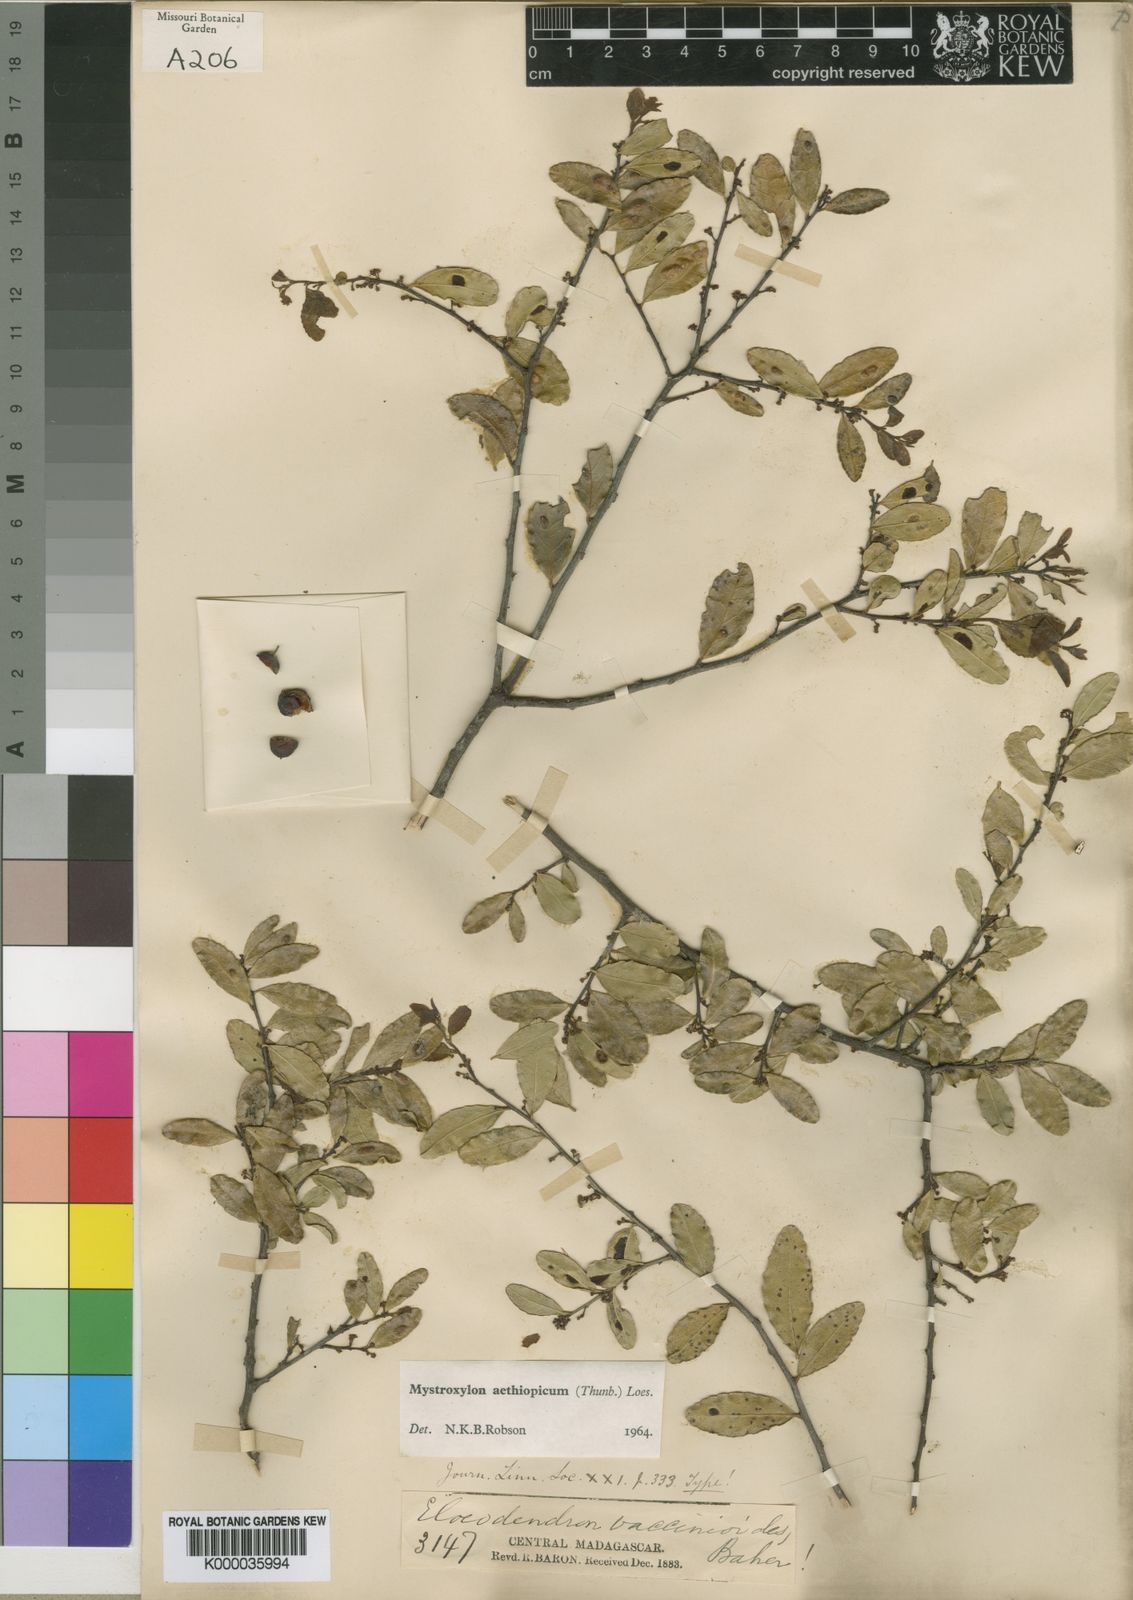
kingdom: Plantae
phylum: Tracheophyta
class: Magnoliopsida
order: Celastrales
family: Celastraceae
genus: Mystroxylon
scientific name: Mystroxylon aethiopicum
